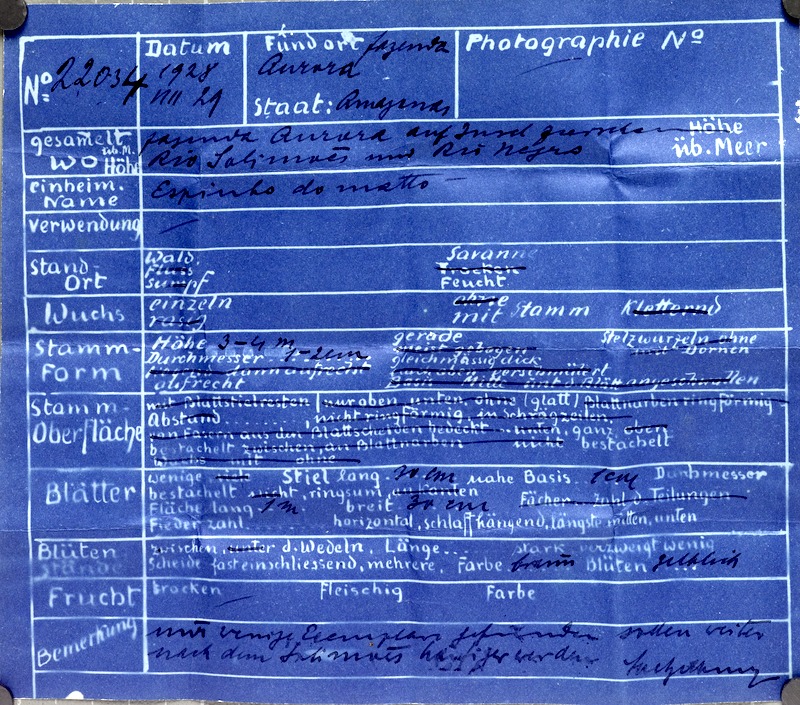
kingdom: Plantae
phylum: Tracheophyta
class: Liliopsida
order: Arecales
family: Arecaceae
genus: Bactris
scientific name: Bactris maraja
